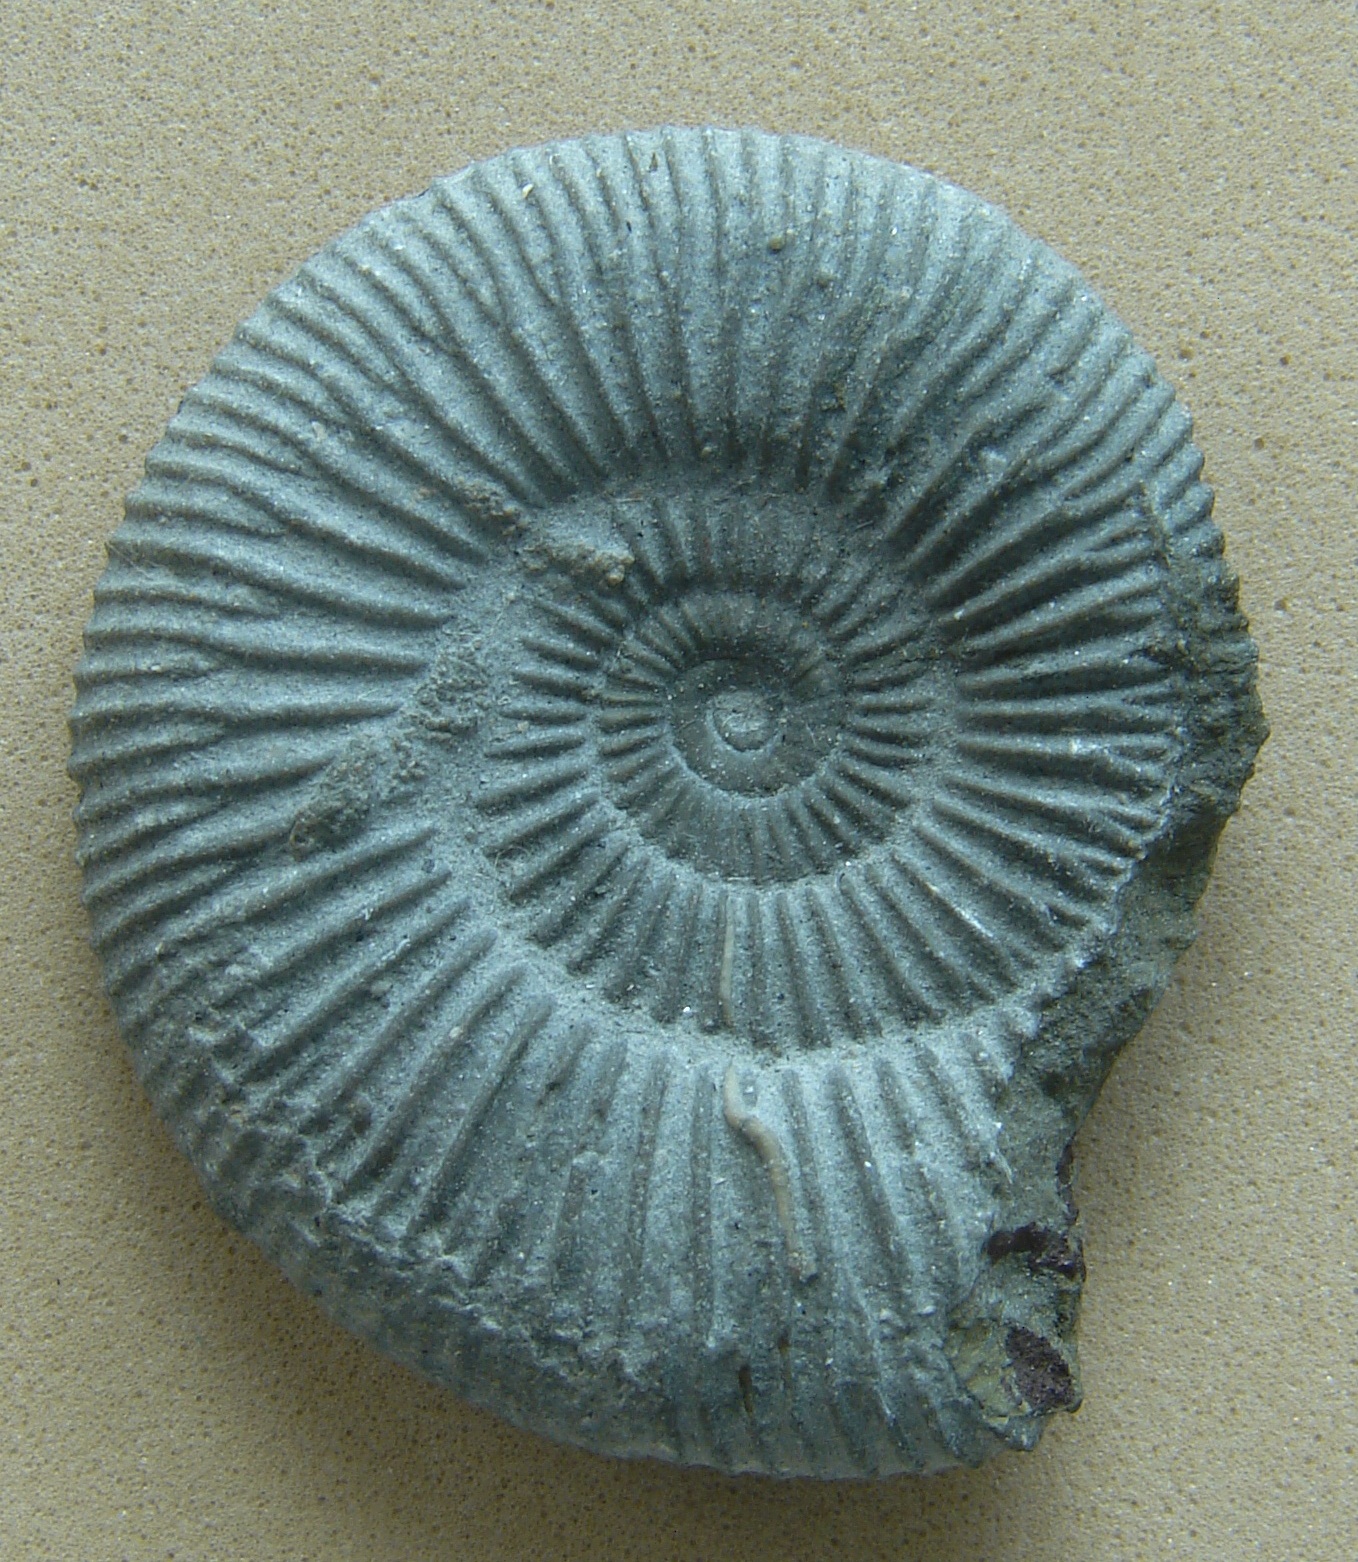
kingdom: Animalia
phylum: Mollusca
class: Cephalopoda
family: Dactylioceratidae
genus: Dactylioceras
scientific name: Dactylioceras
